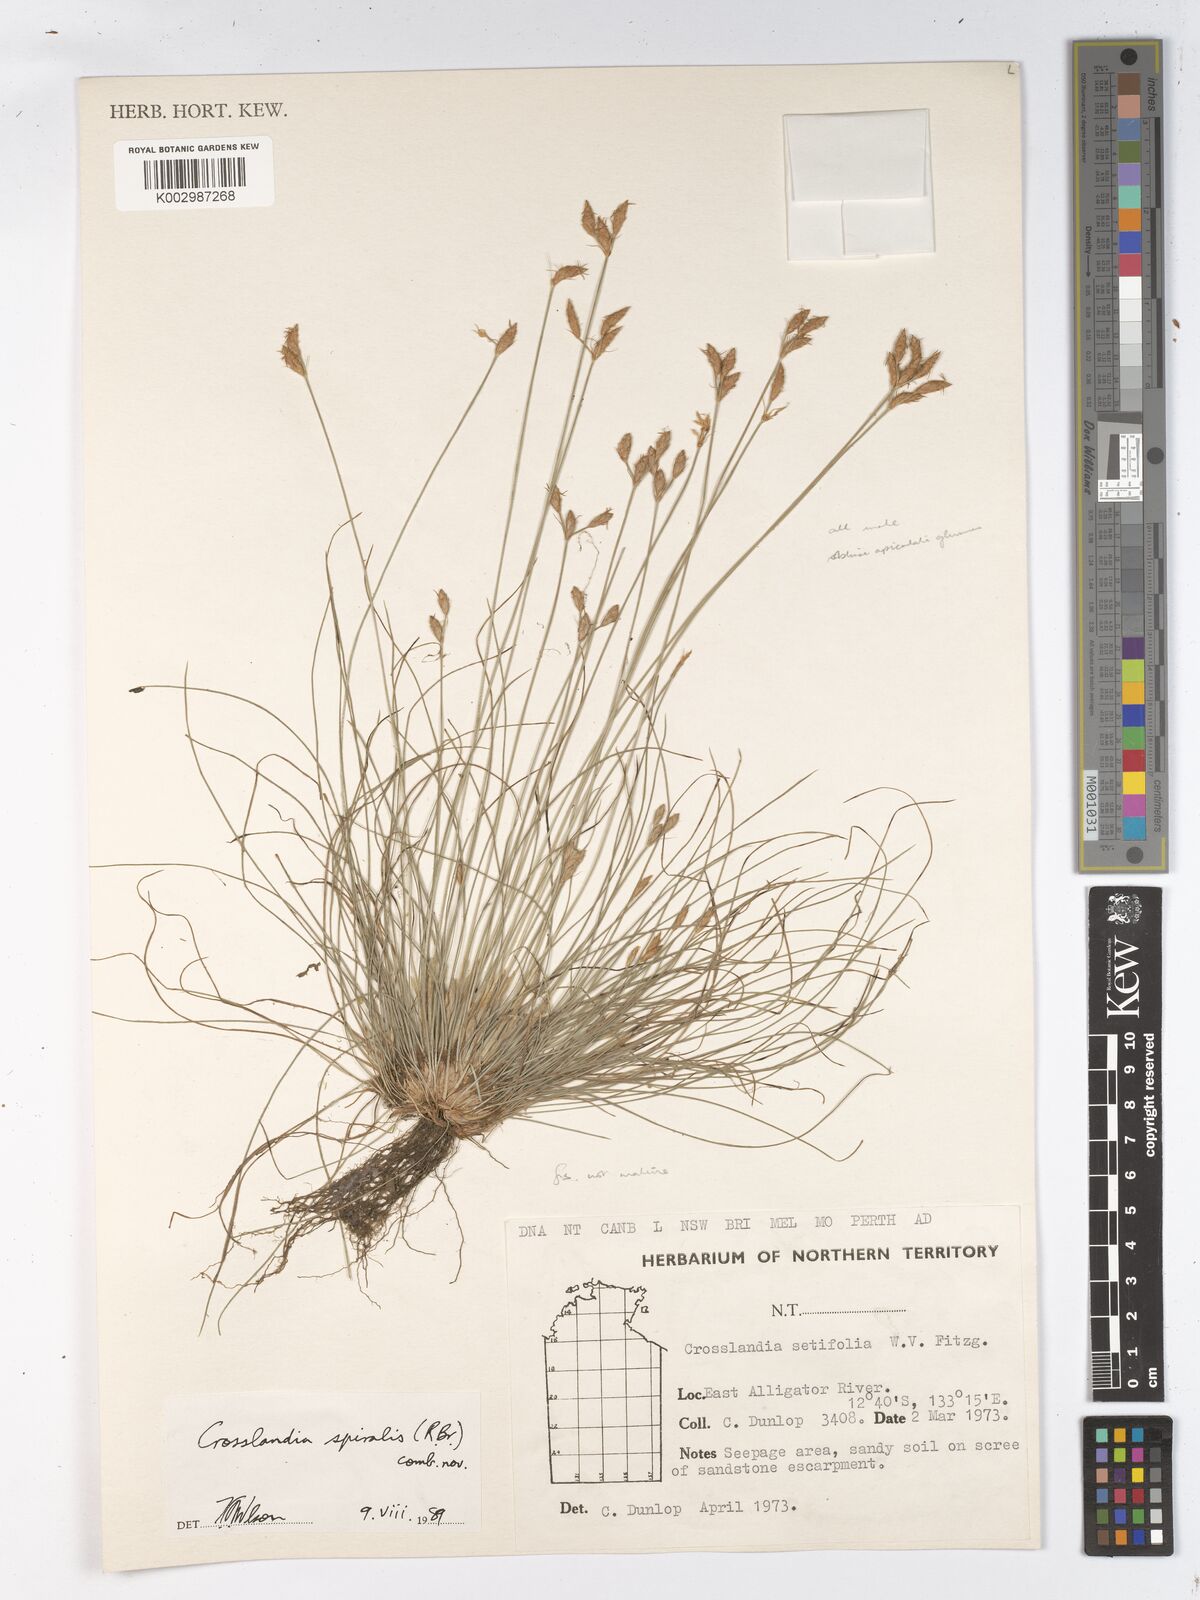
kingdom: Animalia
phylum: Mollusca
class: Gastropoda
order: Nudibranchia
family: Scyllaeidae
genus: Crosslandia
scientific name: Crosslandia
